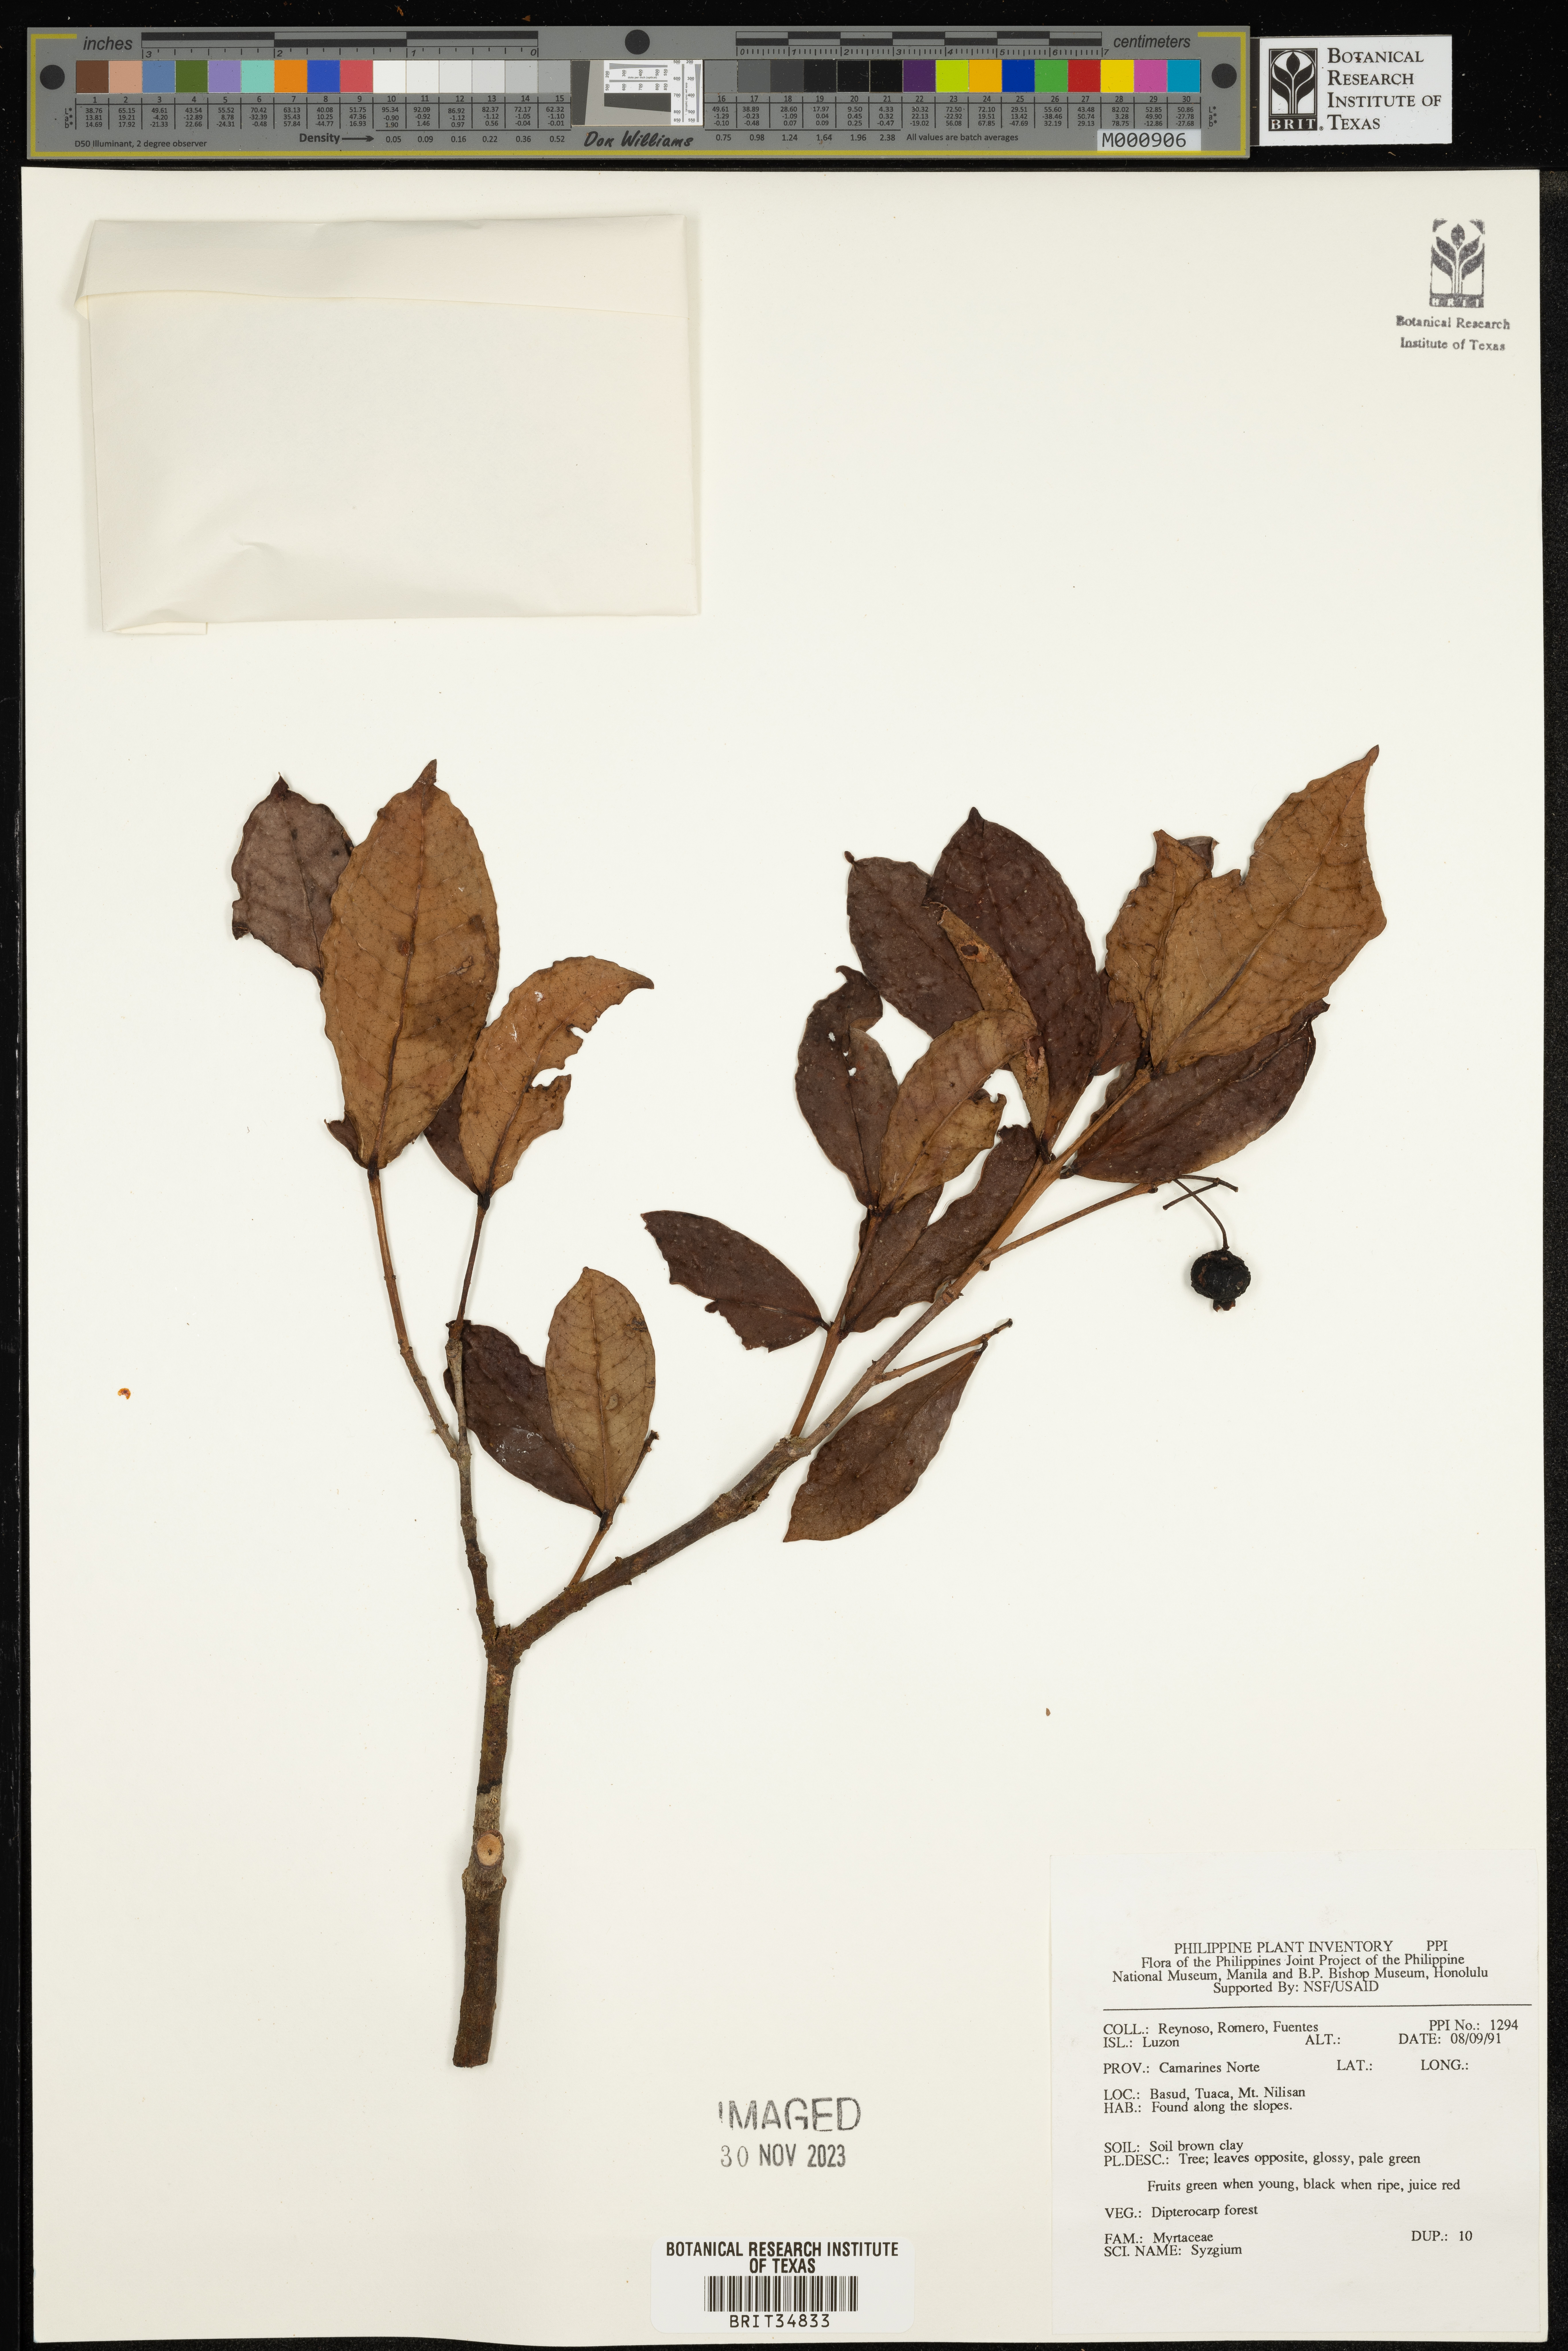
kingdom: Plantae
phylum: Tracheophyta
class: Magnoliopsida
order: Myrtales
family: Myrtaceae
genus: Syzygium
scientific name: Syzygium
